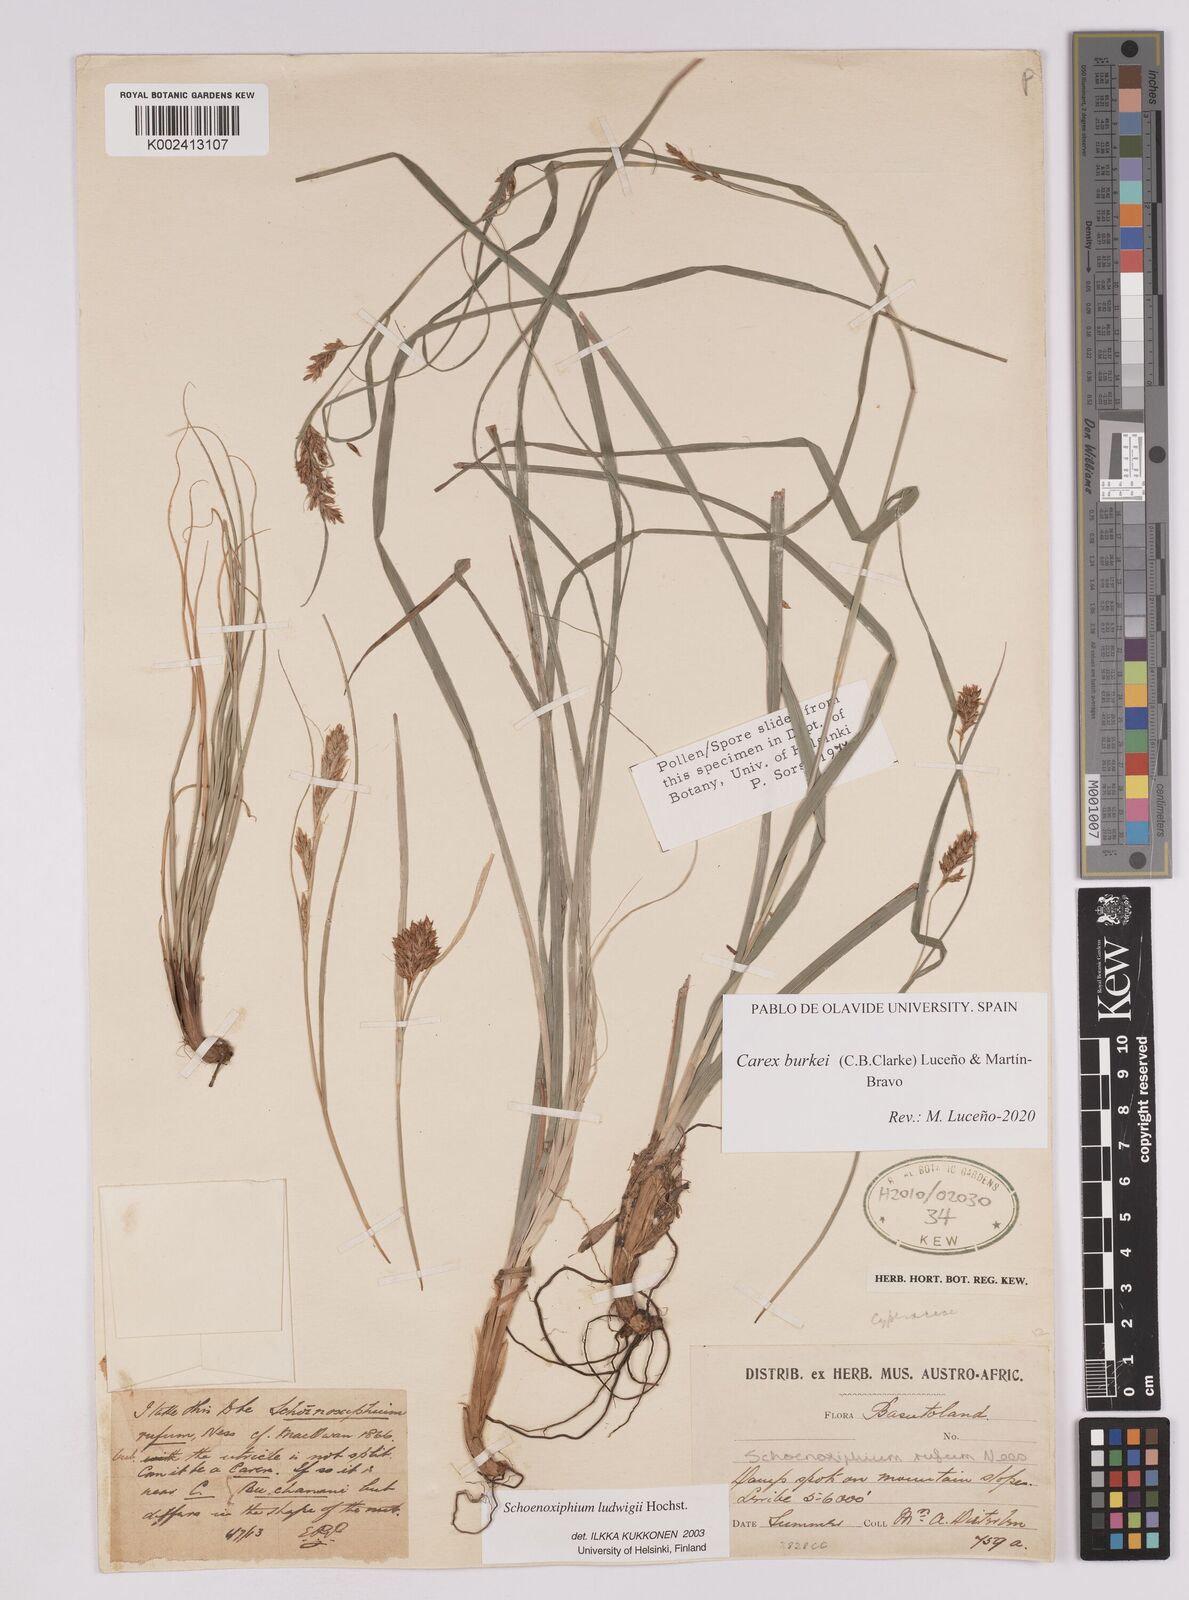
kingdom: Plantae
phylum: Tracheophyta
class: Liliopsida
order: Poales
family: Cyperaceae
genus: Carex
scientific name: Carex burkei
